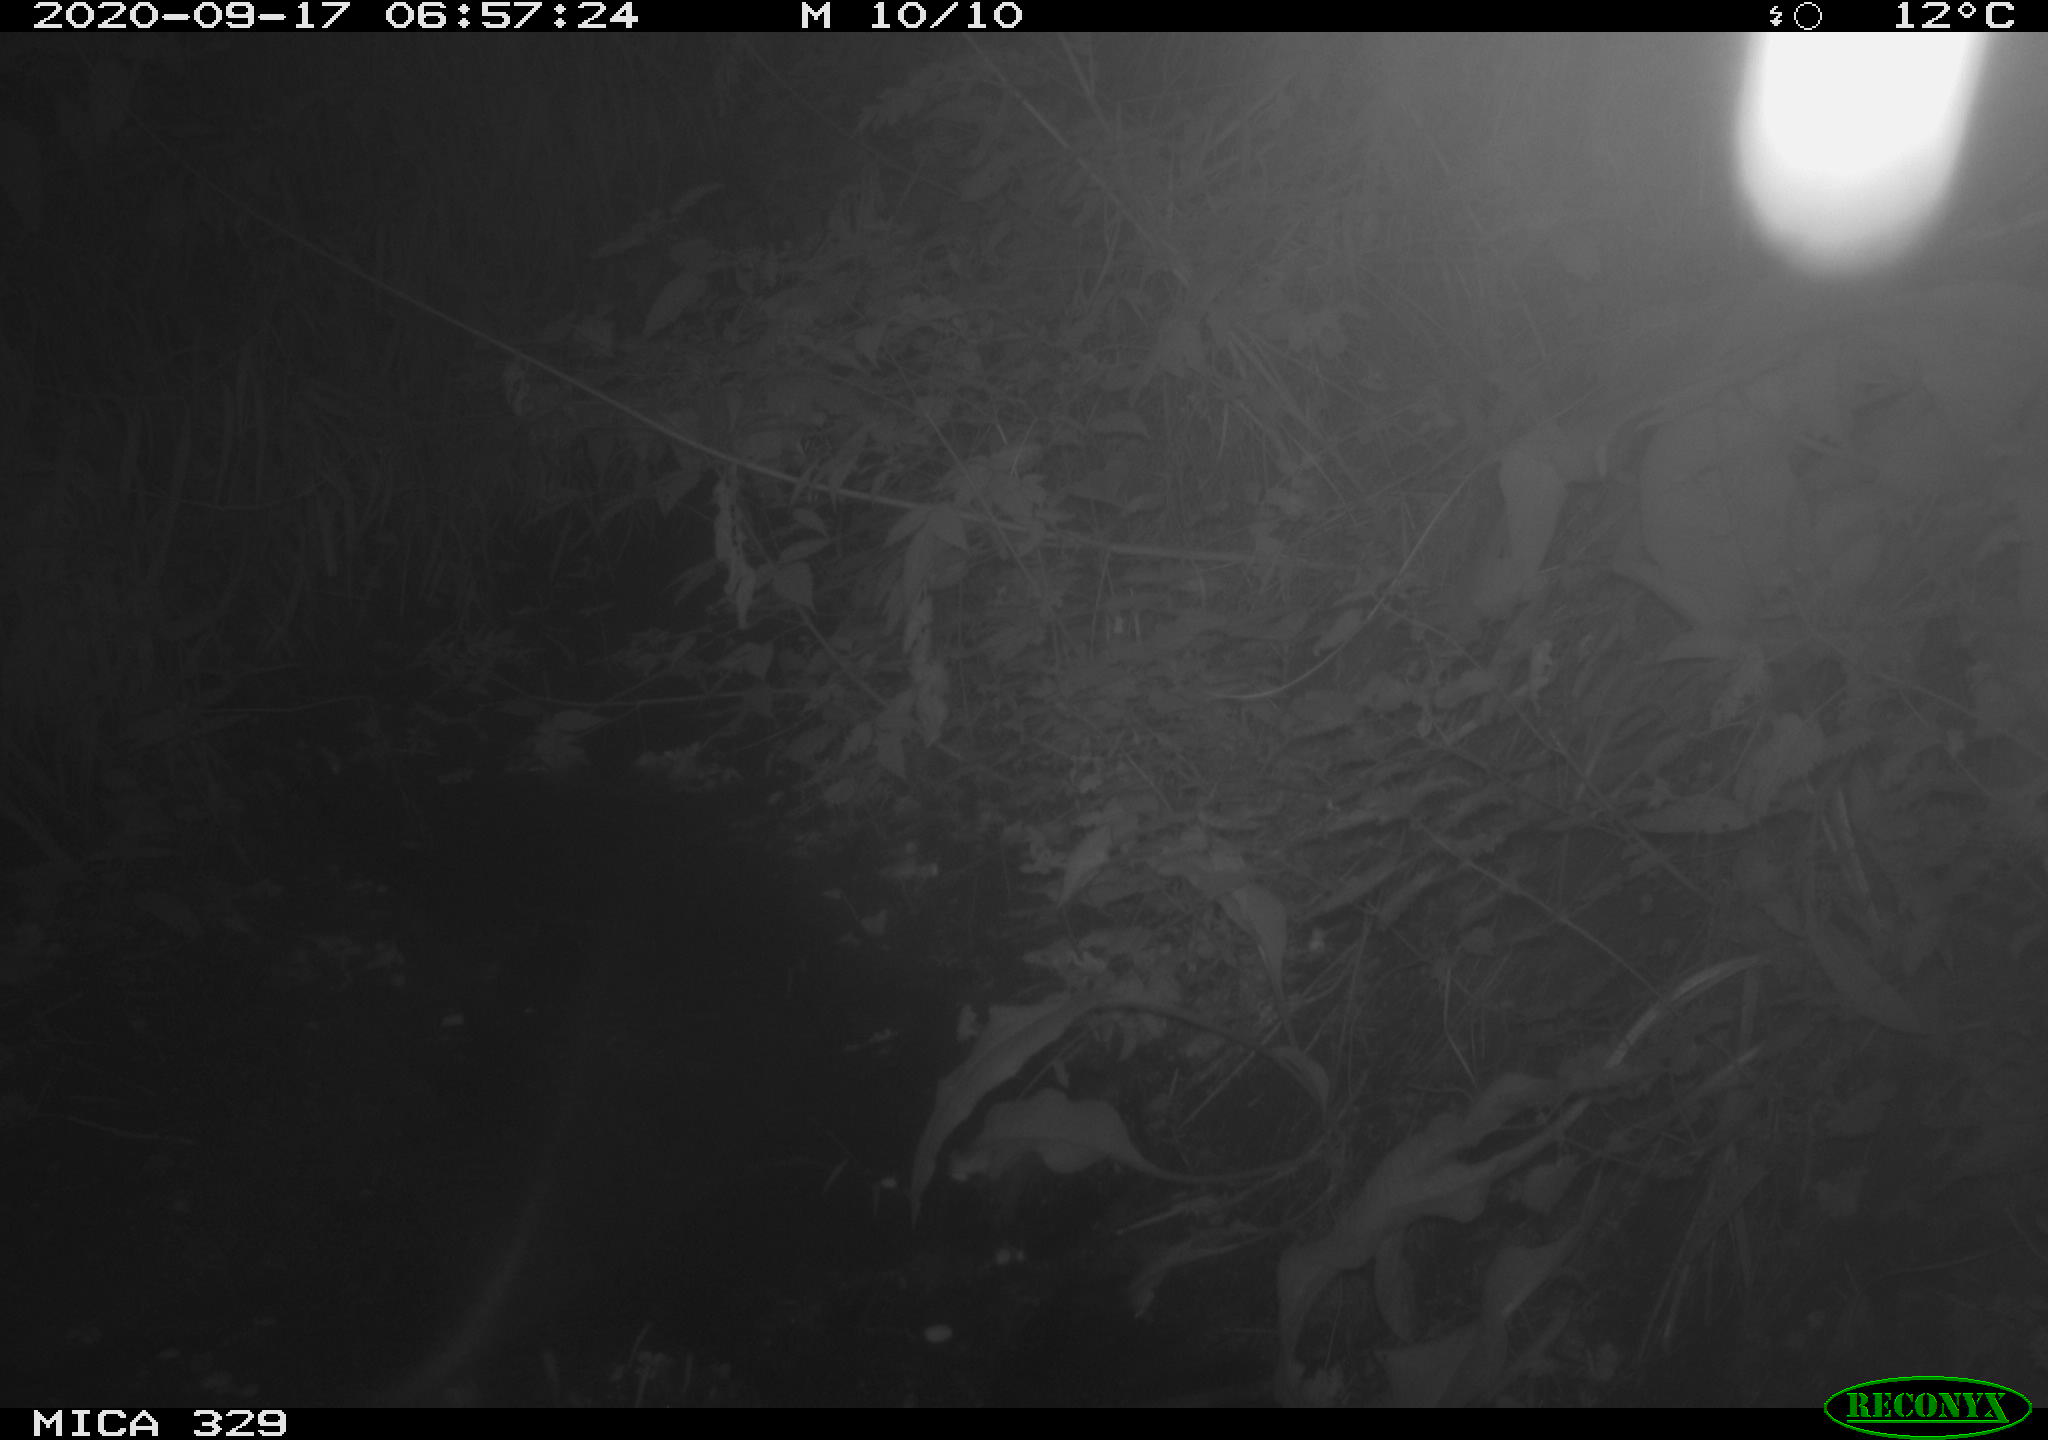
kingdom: Animalia
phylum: Chordata
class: Mammalia
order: Carnivora
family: Mustelidae
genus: Martes
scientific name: Martes martes
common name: European pine marten
